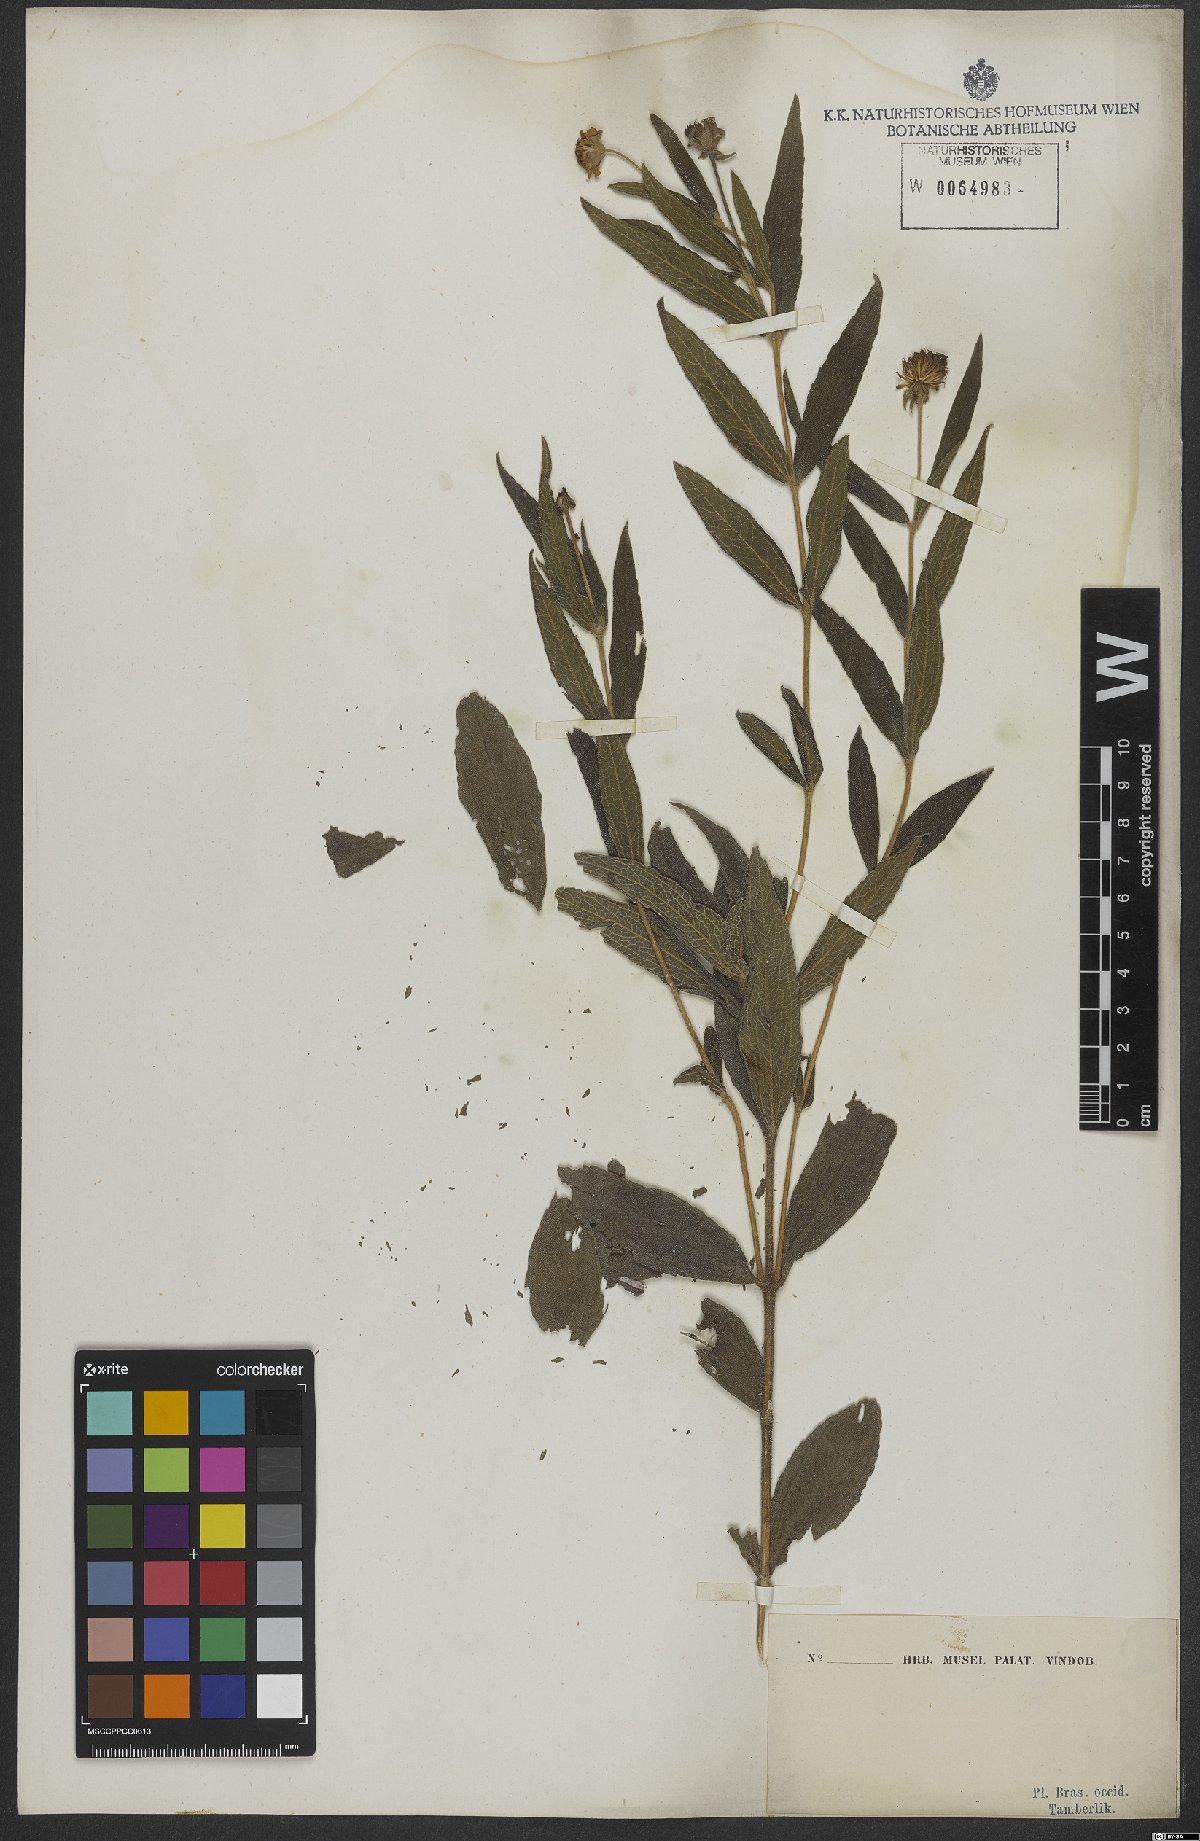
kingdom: Plantae
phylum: Tracheophyta
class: Magnoliopsida
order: Asterales
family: Asteraceae
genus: Wedelia
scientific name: Wedelia
